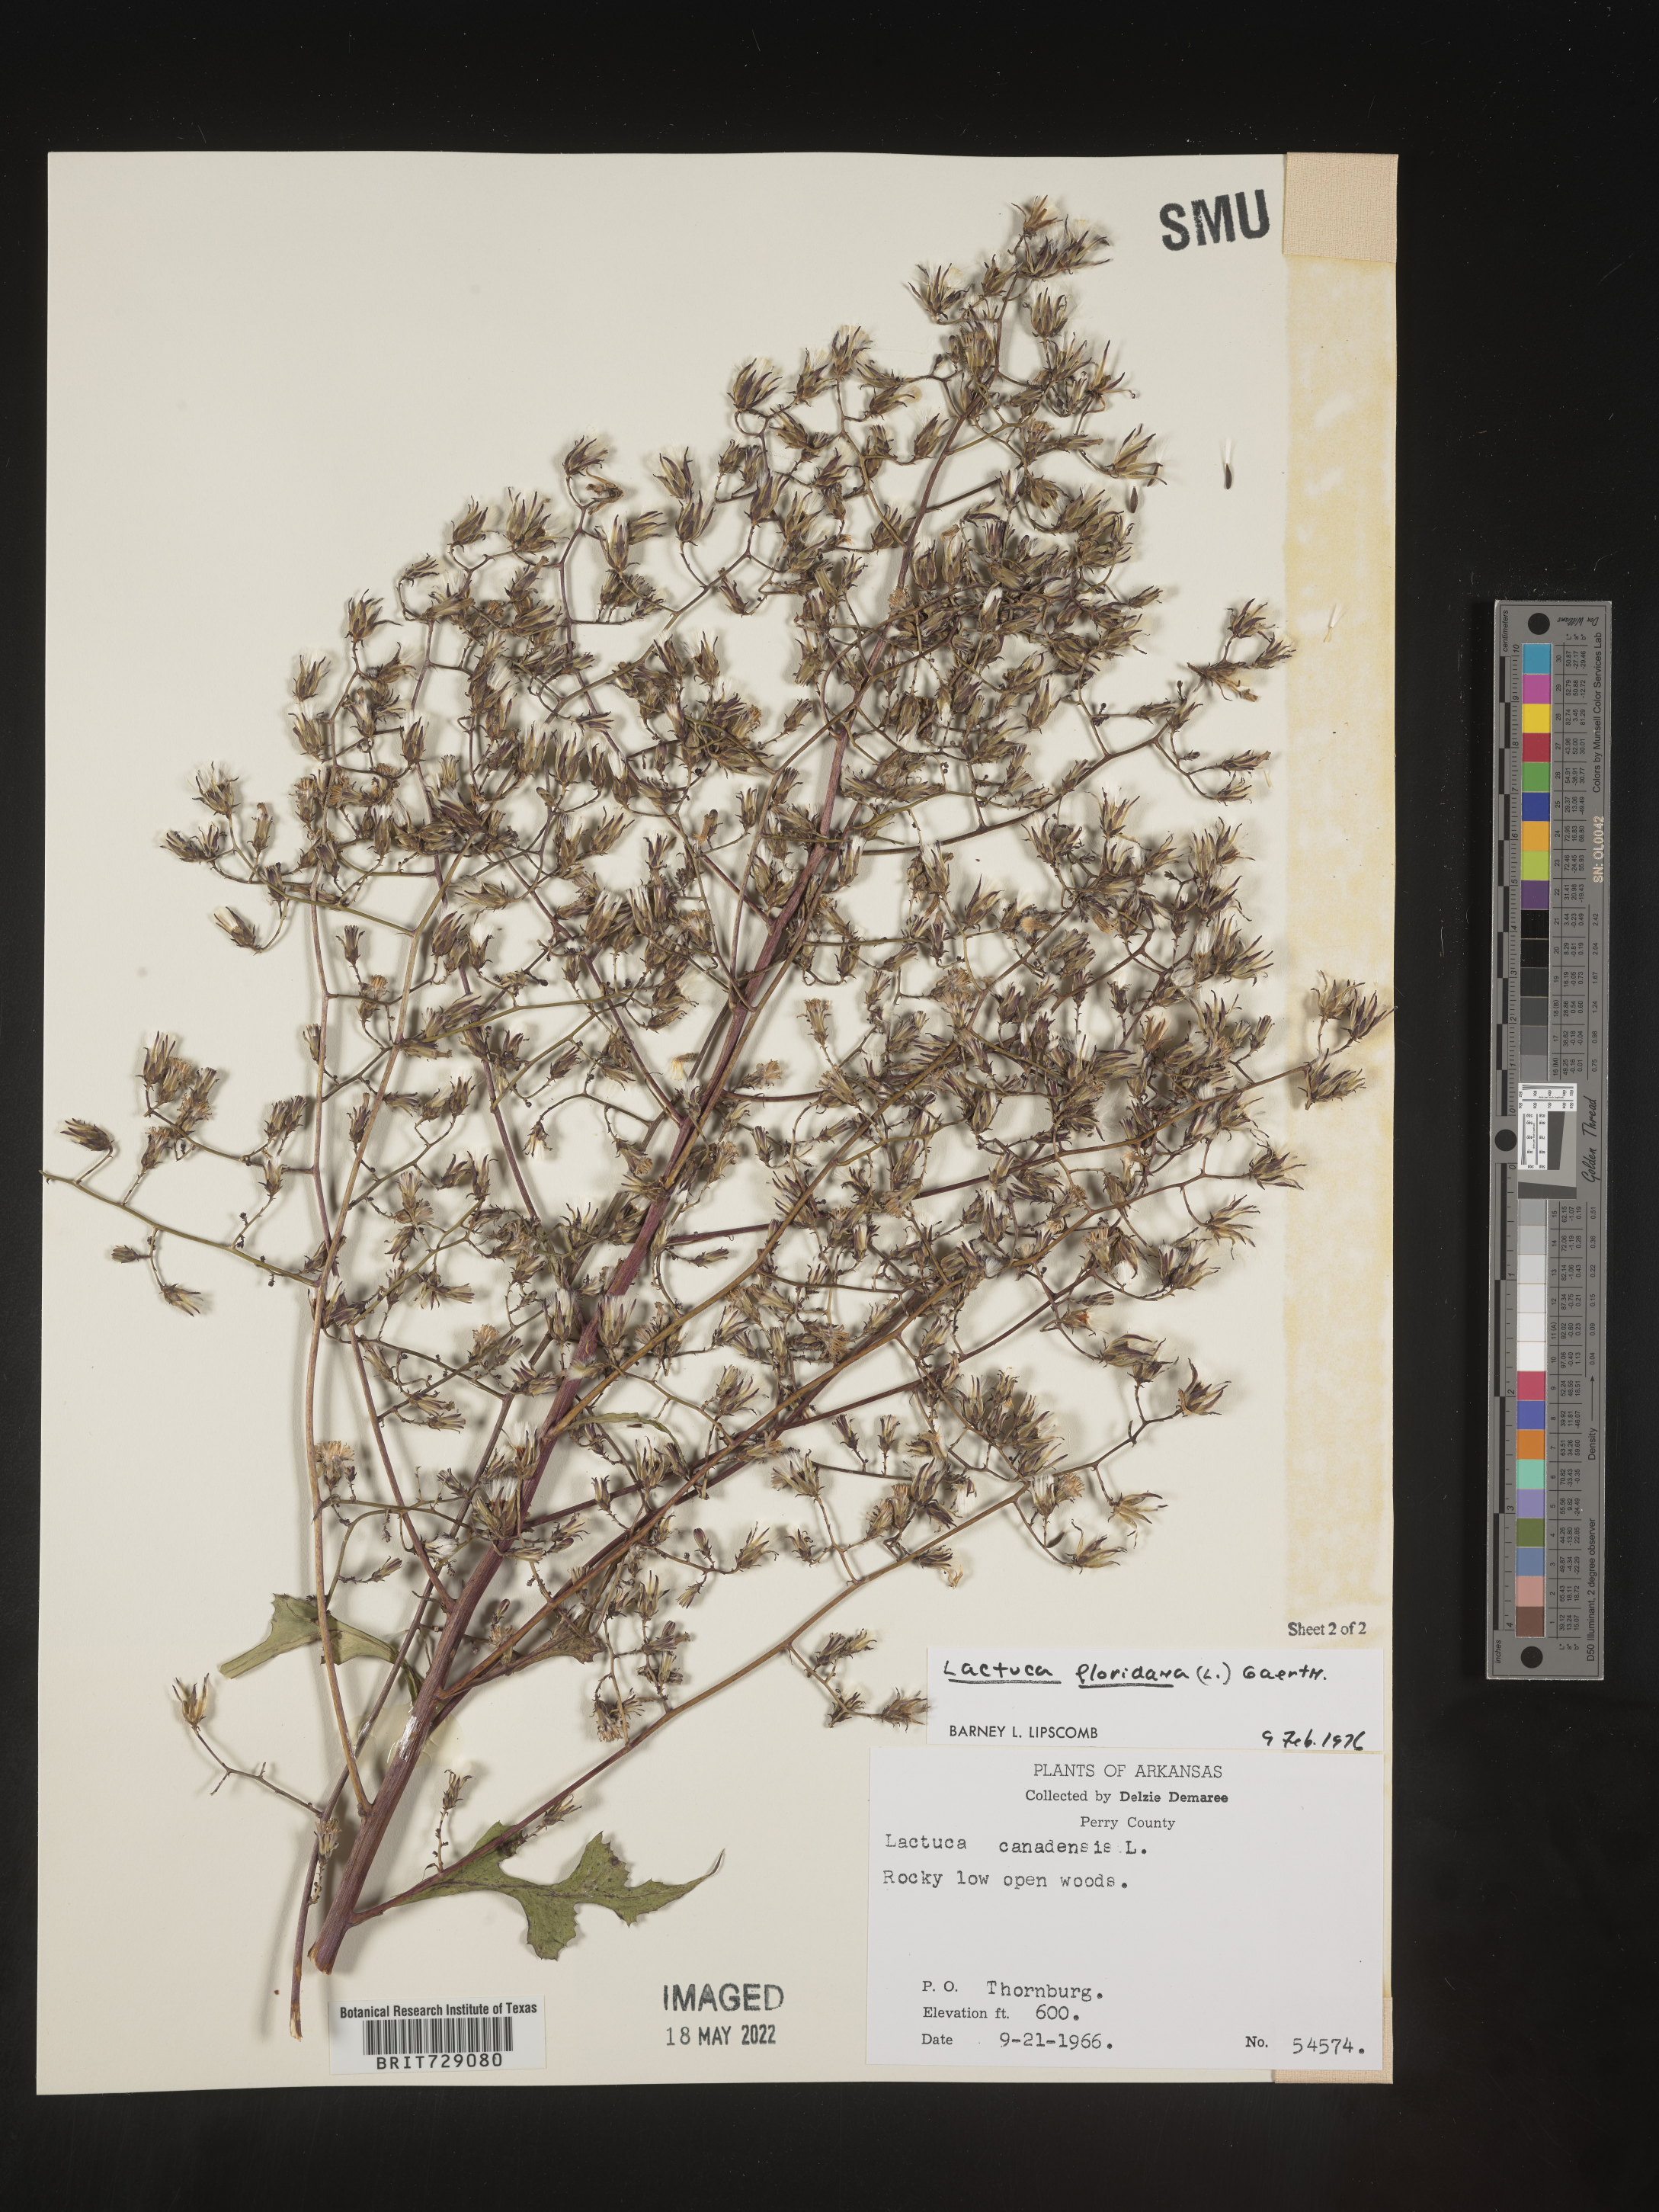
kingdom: Plantae
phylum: Tracheophyta
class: Magnoliopsida
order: Asterales
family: Asteraceae
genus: Lactuca
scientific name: Lactuca floridana
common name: Woodland lettuce
